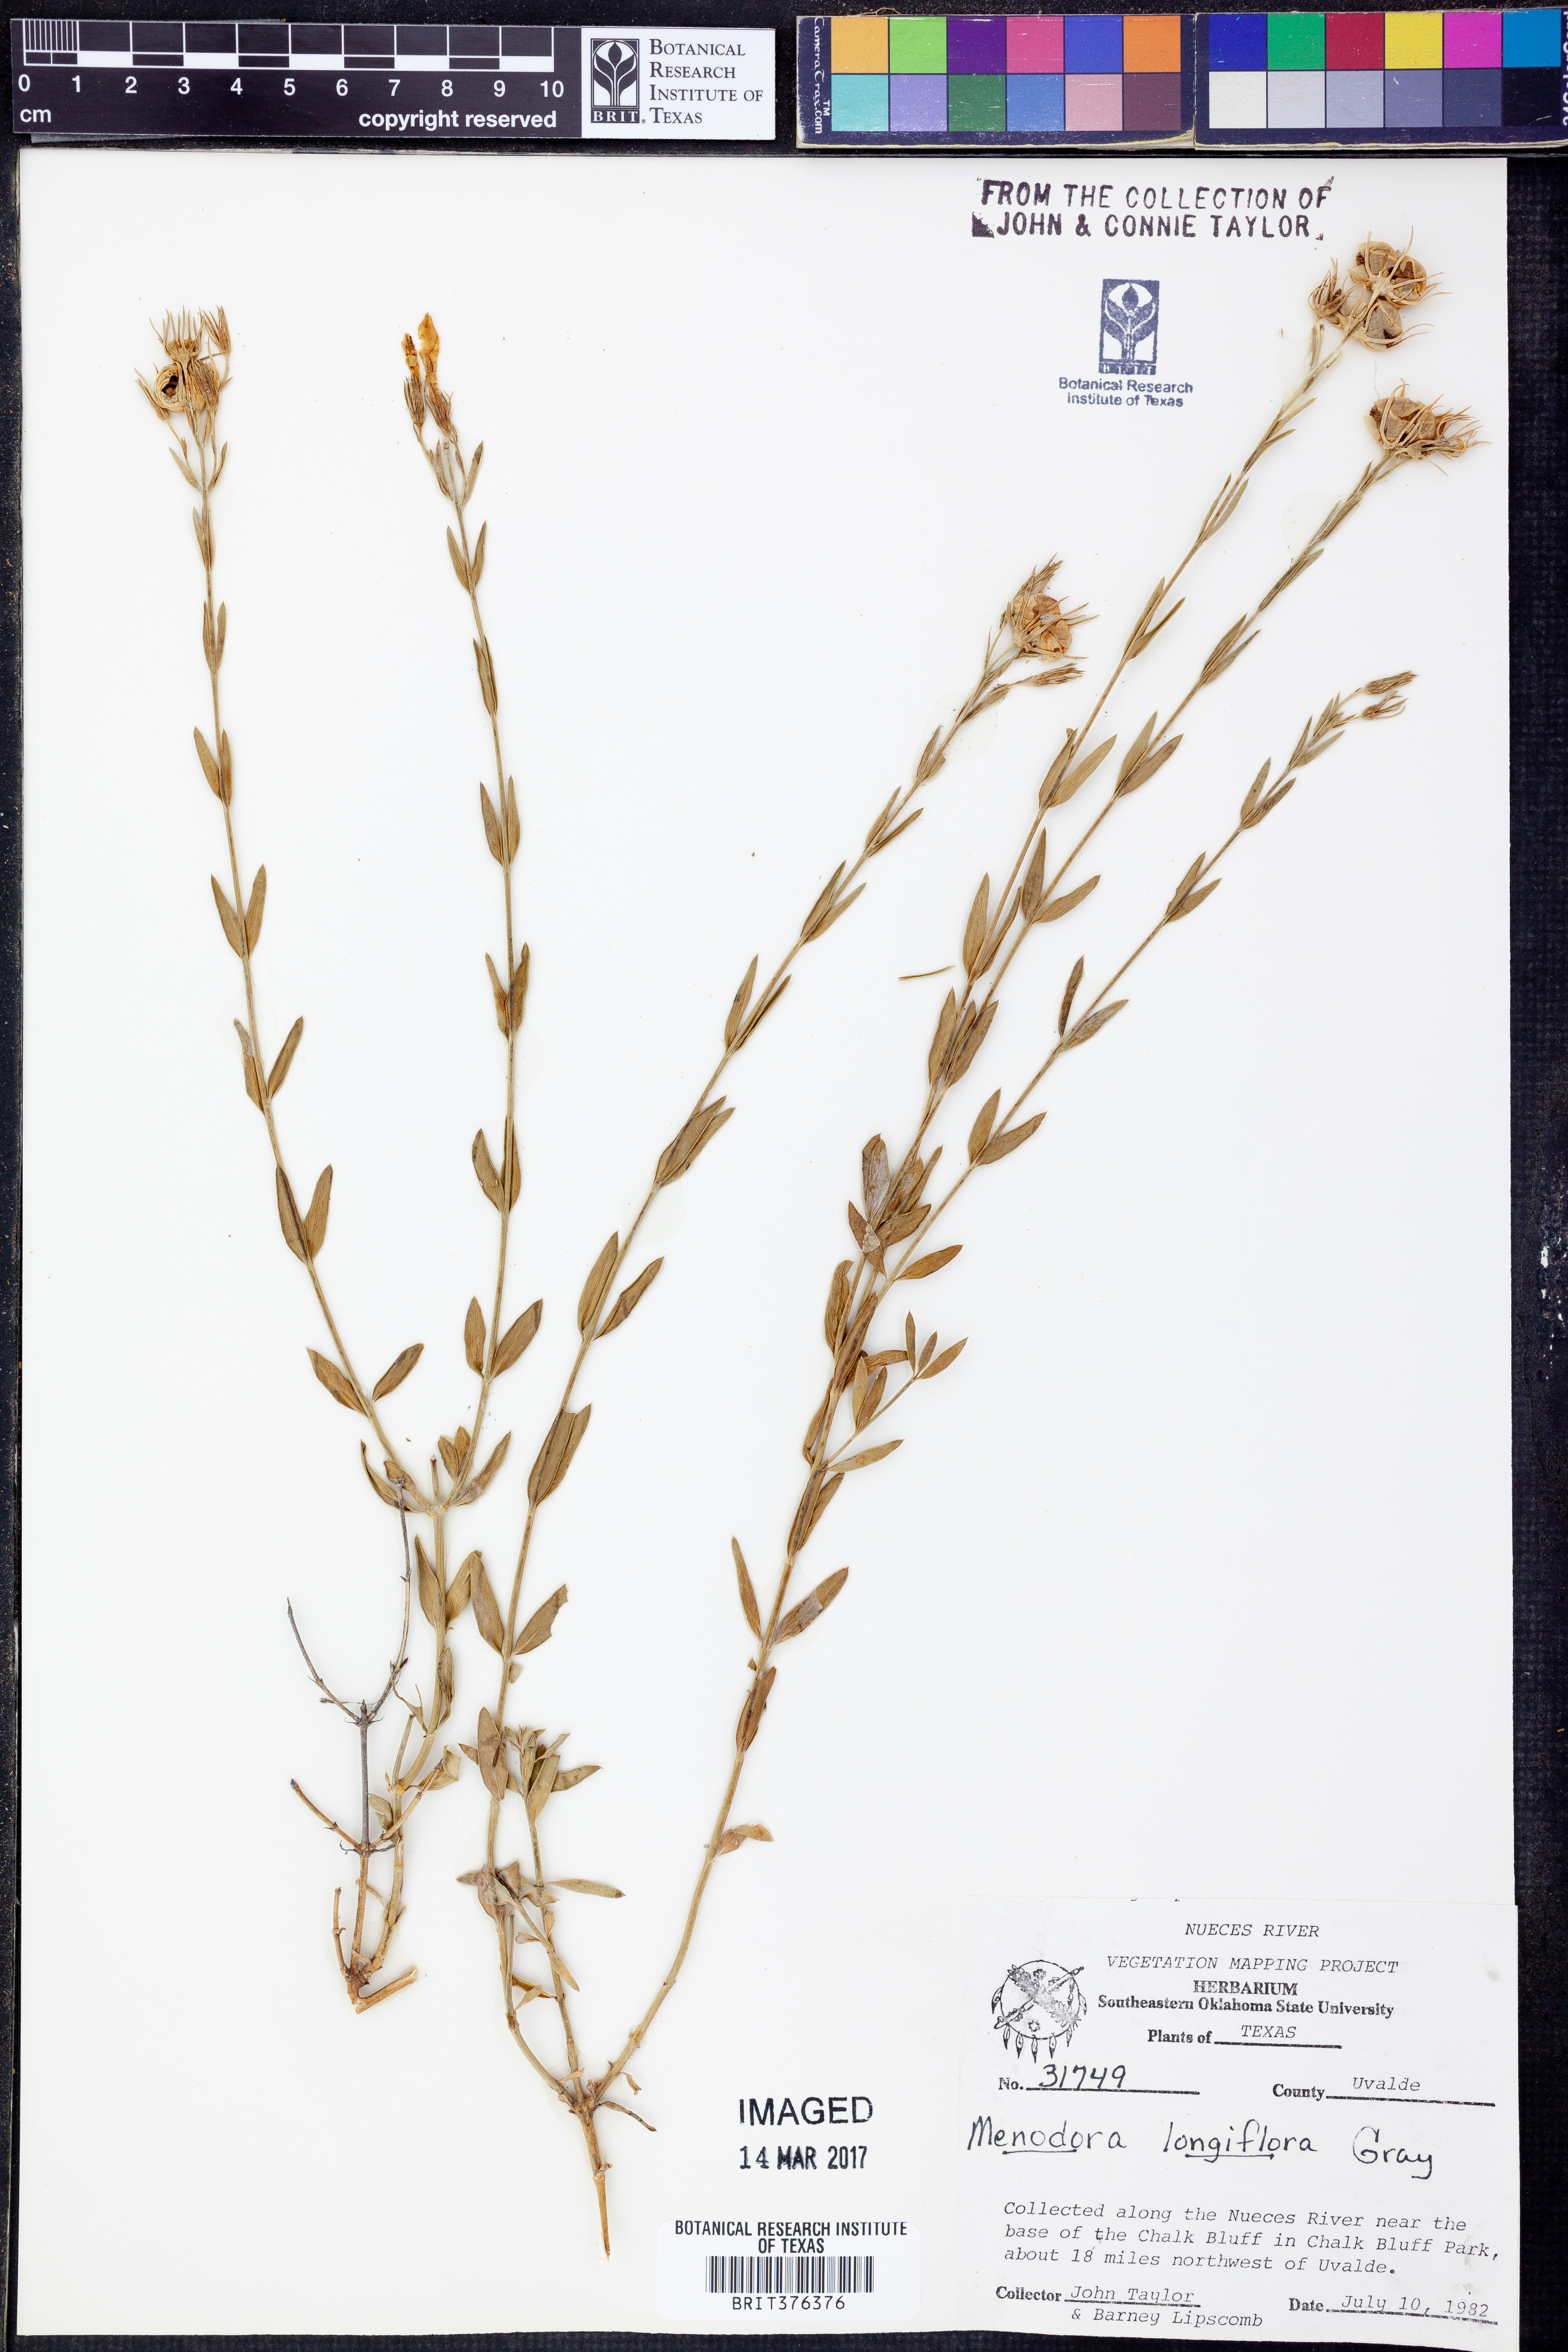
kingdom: Plantae
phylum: Tracheophyta
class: Magnoliopsida
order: Lamiales
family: Oleaceae
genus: Menodora
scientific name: Menodora longiflora
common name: Showy menodora
